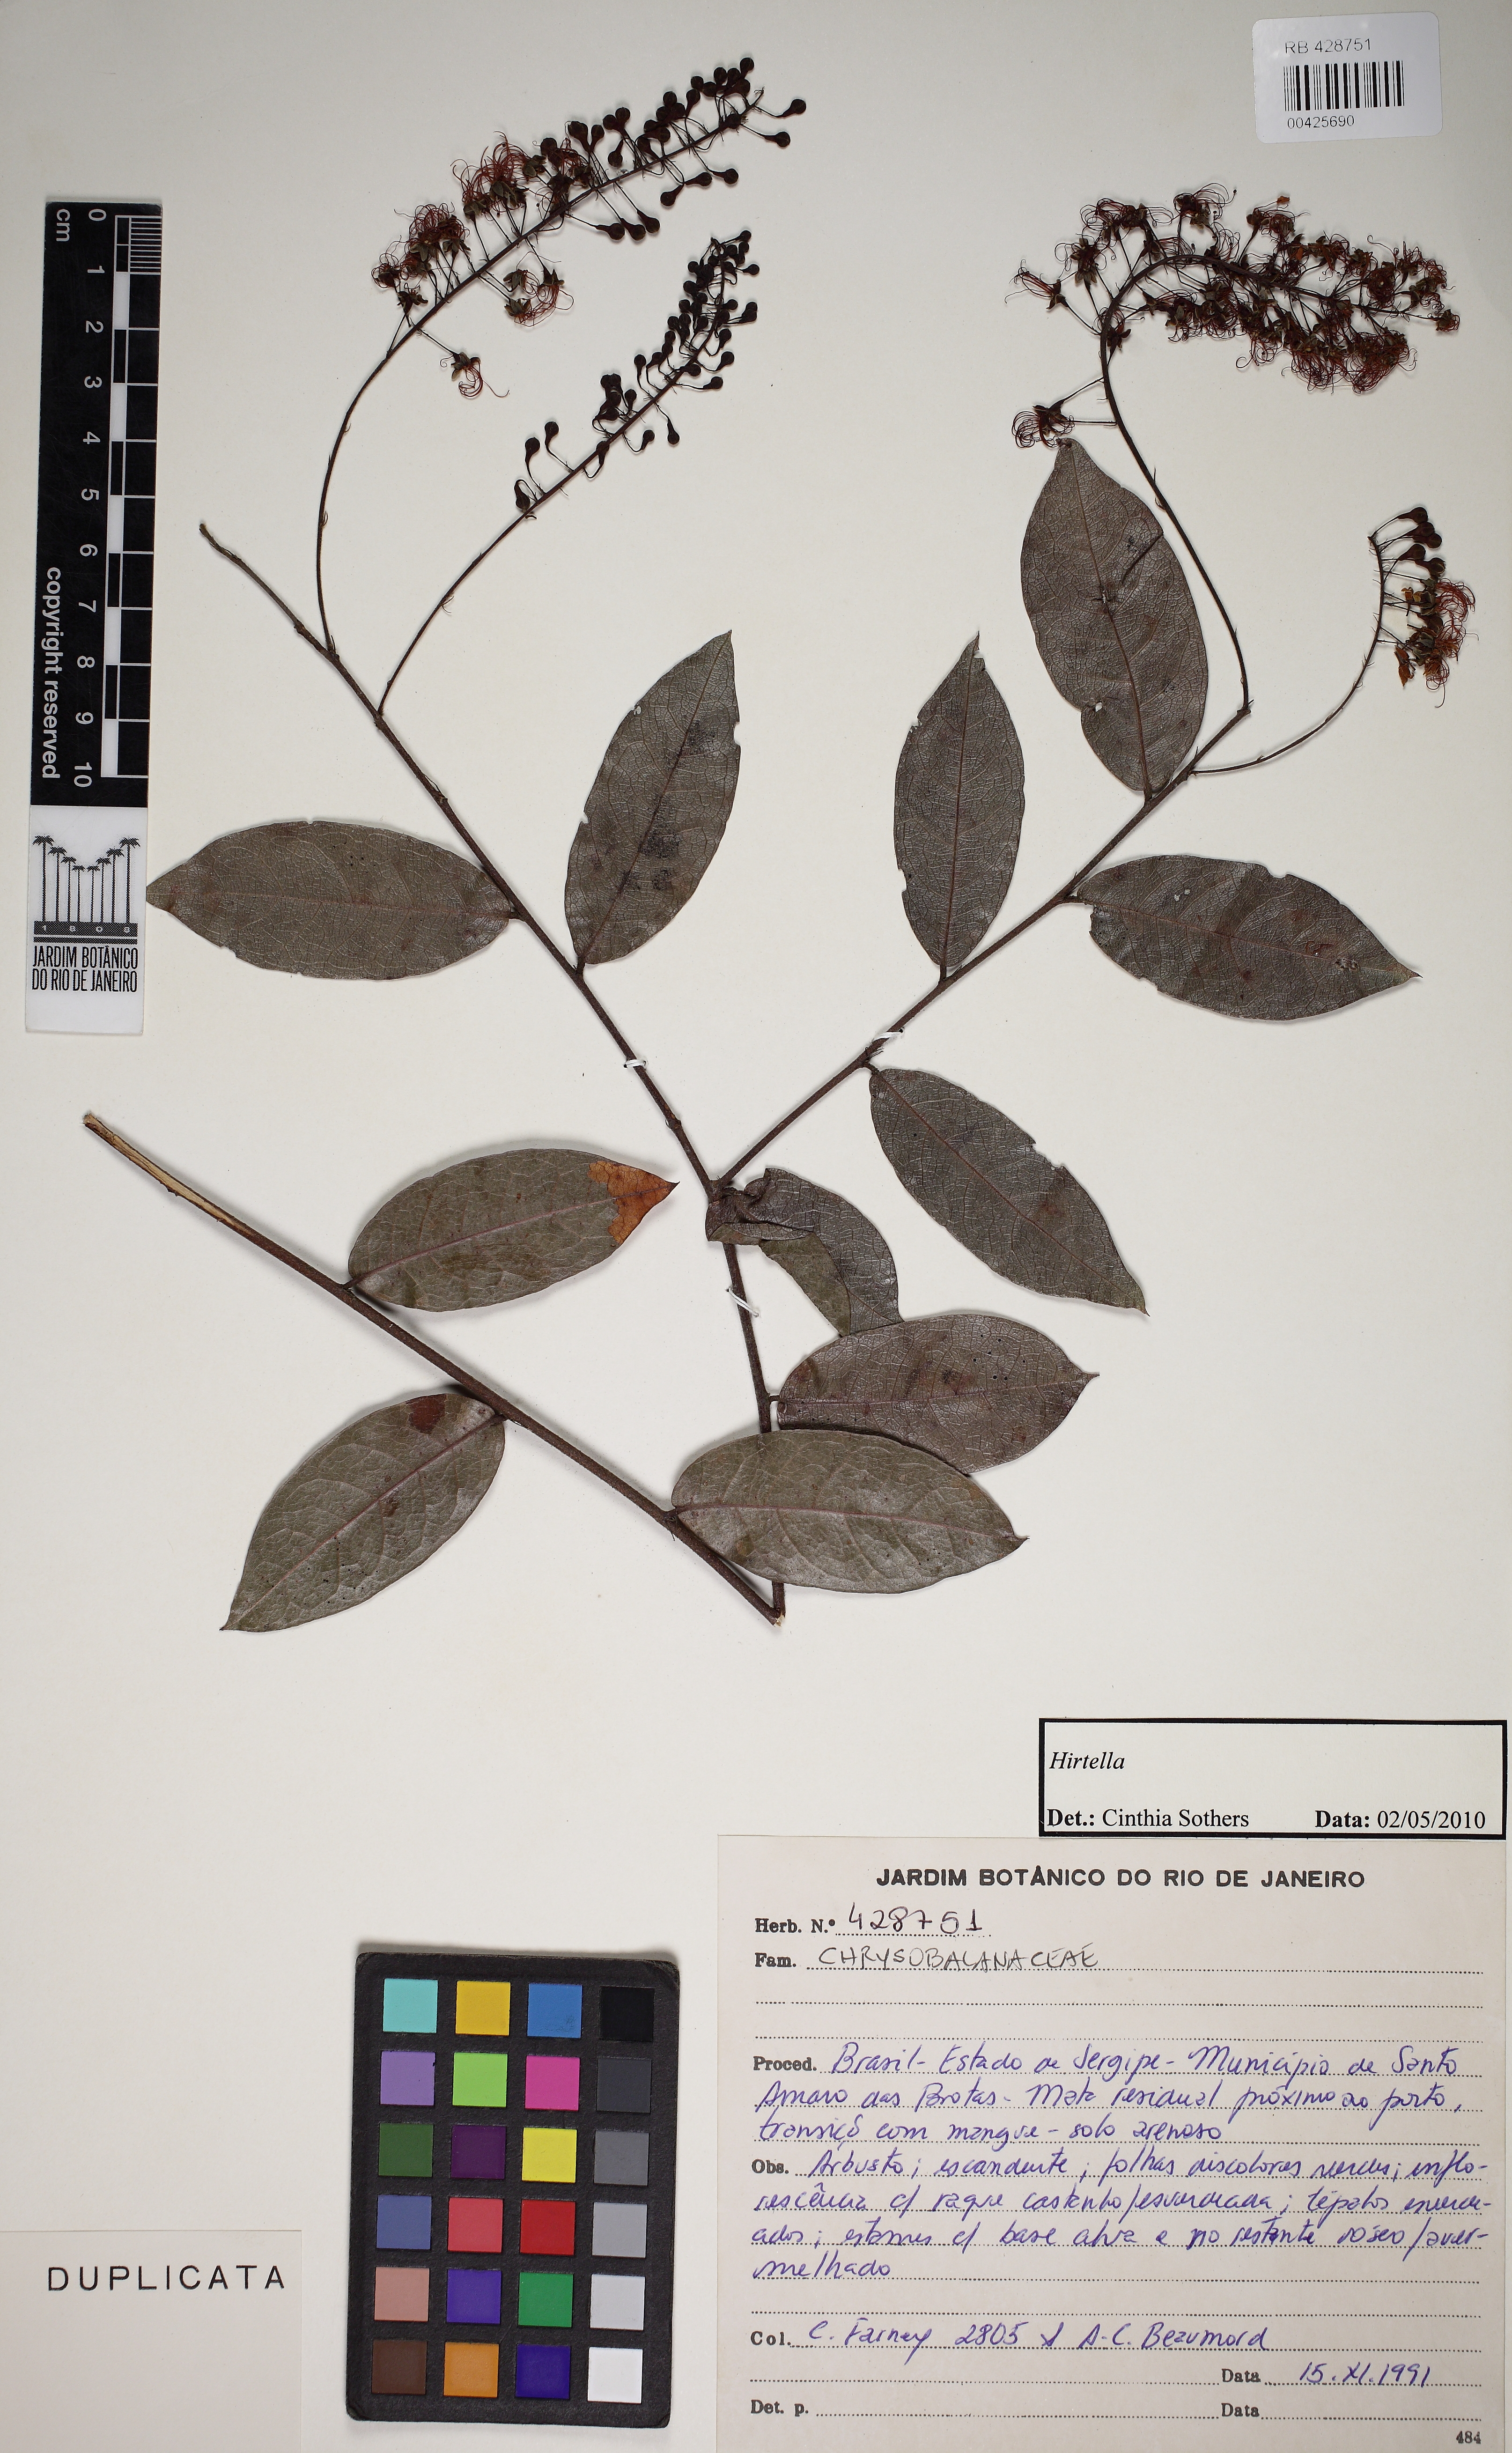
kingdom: Plantae
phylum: Tracheophyta
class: Magnoliopsida
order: Malpighiales
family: Chrysobalanaceae
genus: Hirtella
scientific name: Hirtella racemosa
